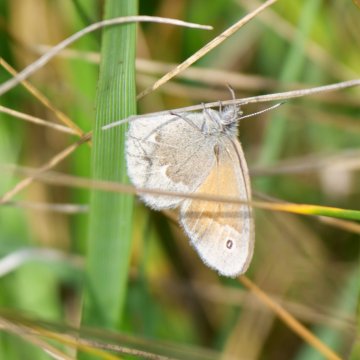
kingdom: Animalia
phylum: Arthropoda
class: Insecta
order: Lepidoptera
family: Nymphalidae
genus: Coenonympha
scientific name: Coenonympha tullia
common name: Large Heath
